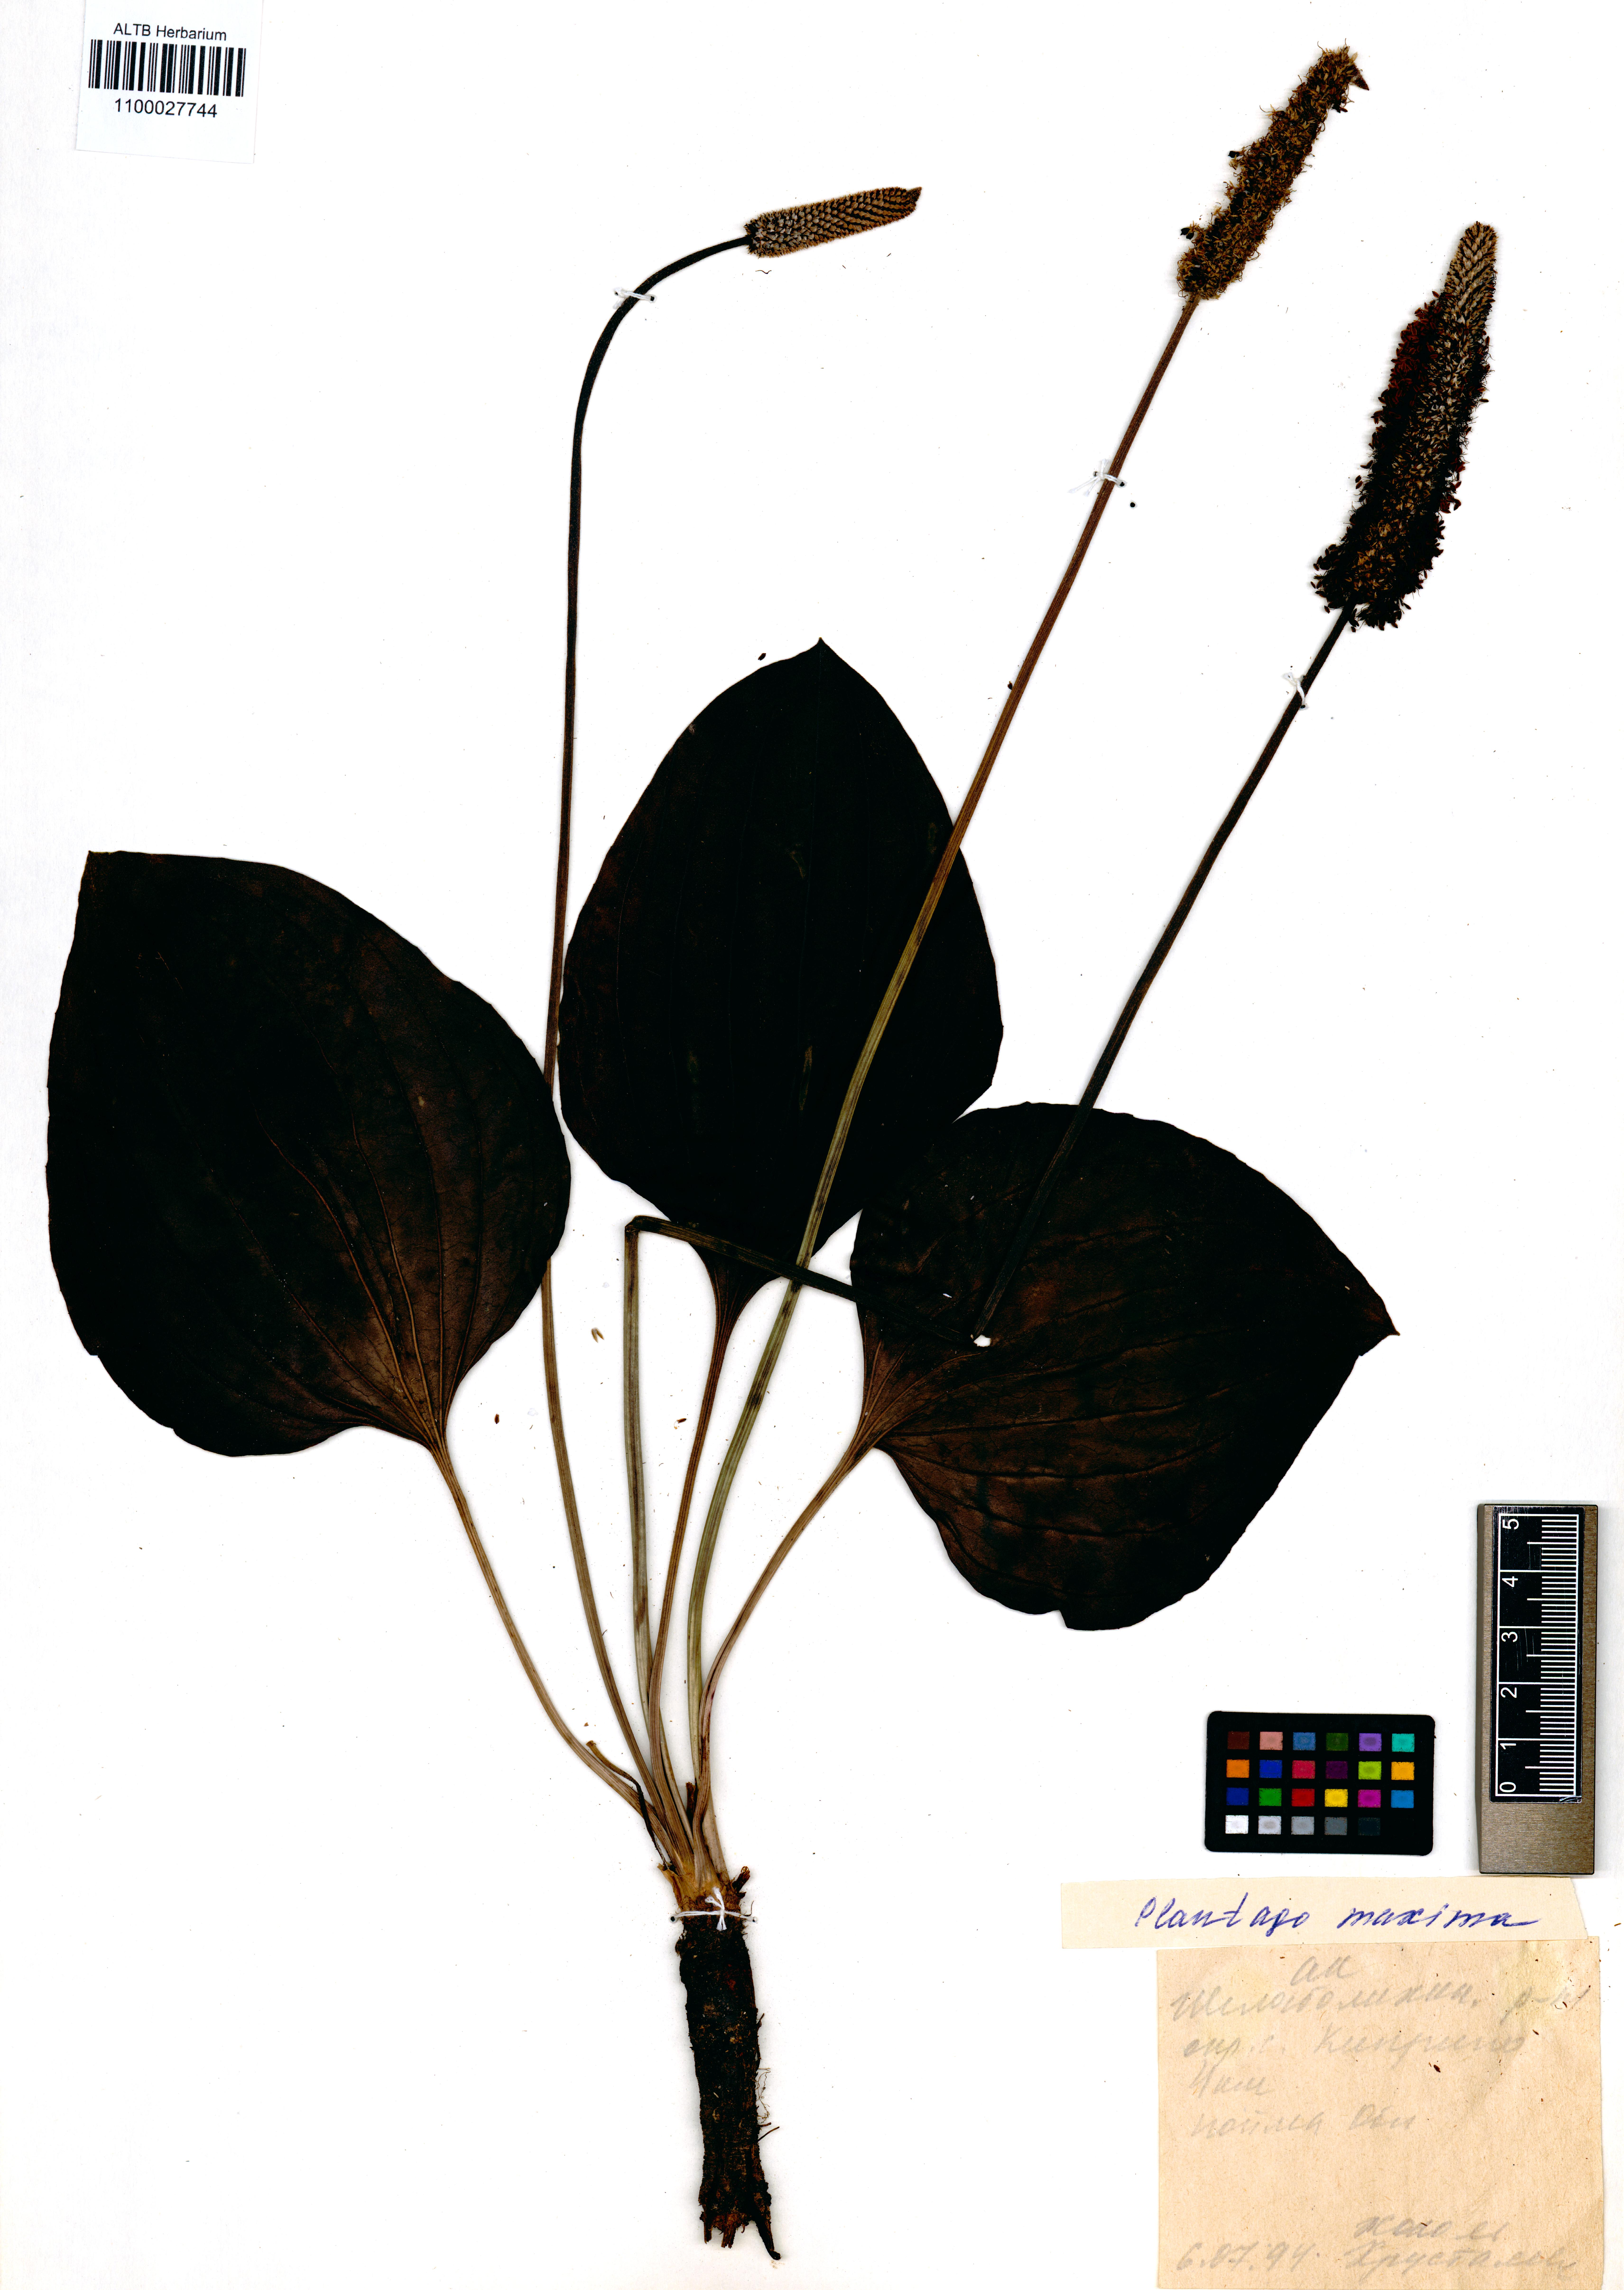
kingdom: Plantae
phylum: Tracheophyta
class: Magnoliopsida
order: Lamiales
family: Plantaginaceae
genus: Plantago
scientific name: Plantago maxima
